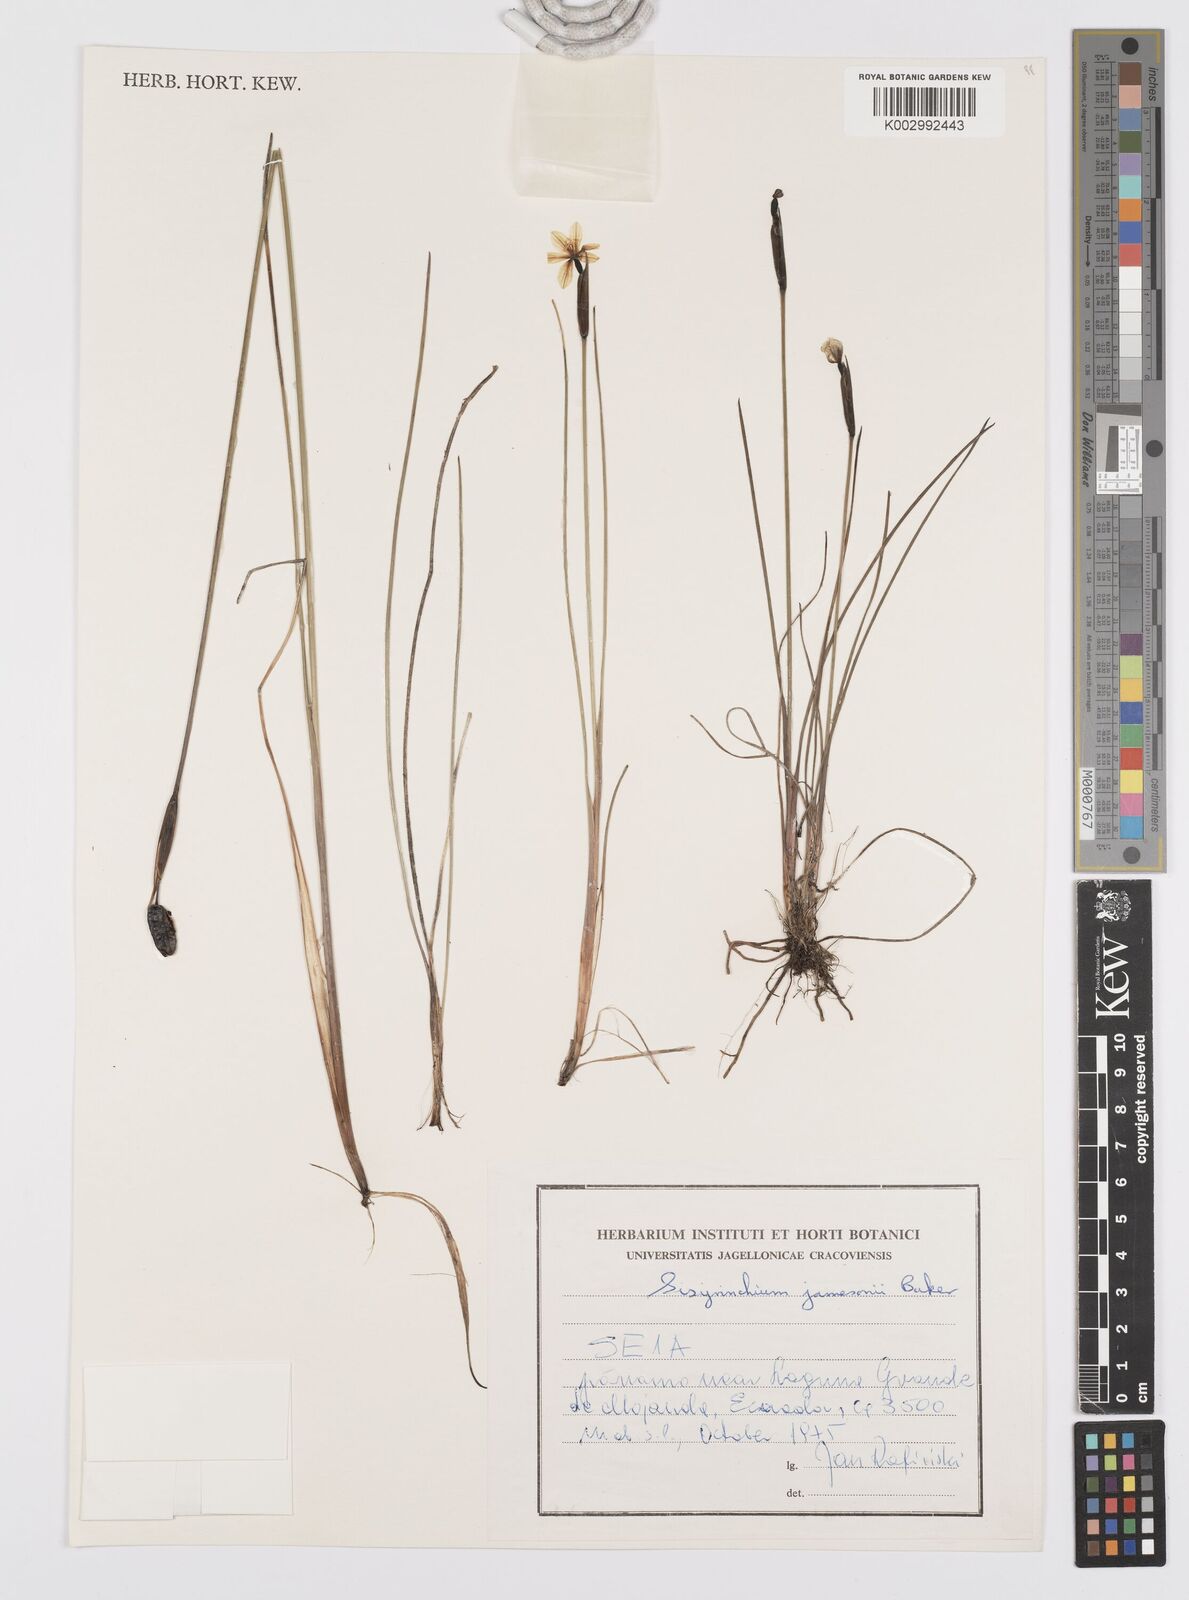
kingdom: Plantae
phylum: Tracheophyta
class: Liliopsida
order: Asparagales
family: Iridaceae
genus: Sisyrinchium
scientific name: Sisyrinchium jamesonii
